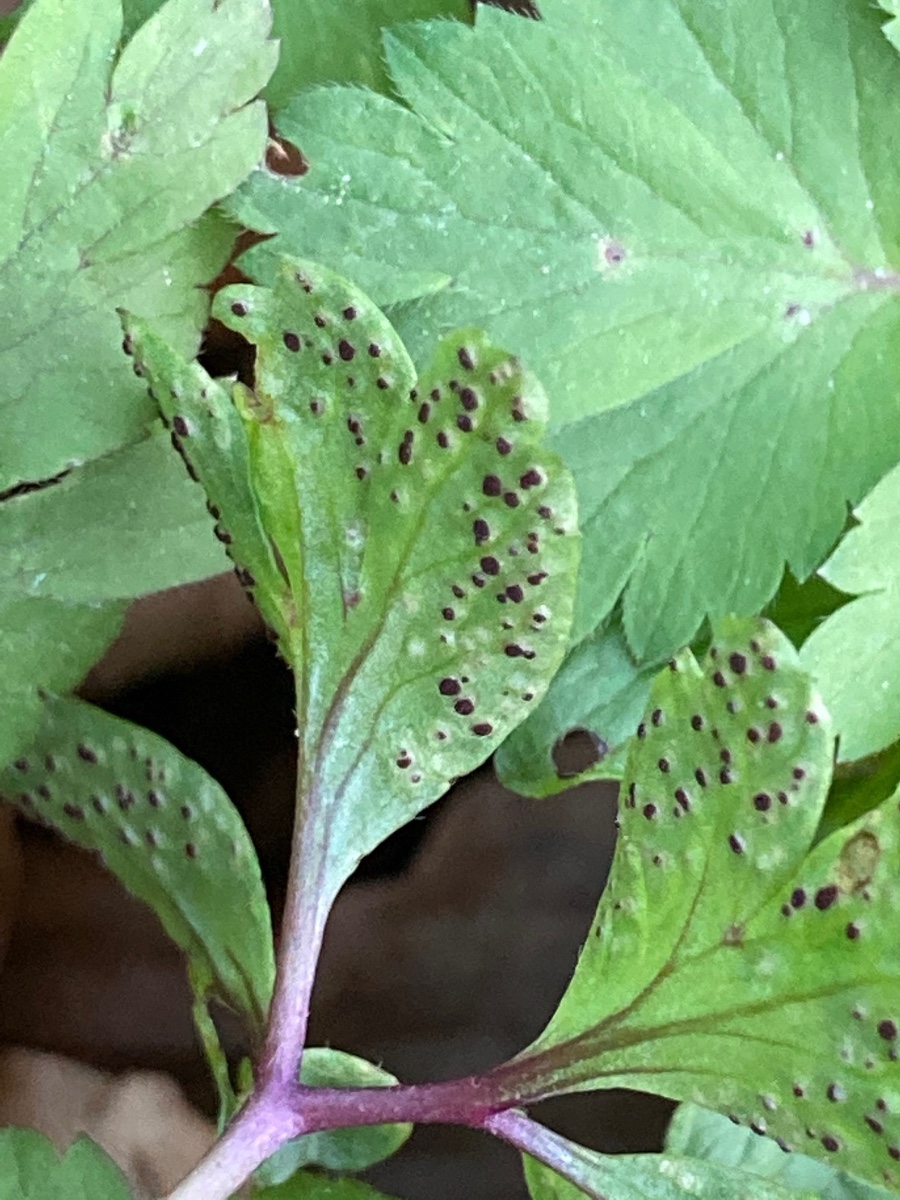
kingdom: Fungi
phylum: Basidiomycota
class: Pucciniomycetes
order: Pucciniales
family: Tranzscheliaceae
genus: Tranzschelia
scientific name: Tranzschelia anemones
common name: anemone-knæksporerust
